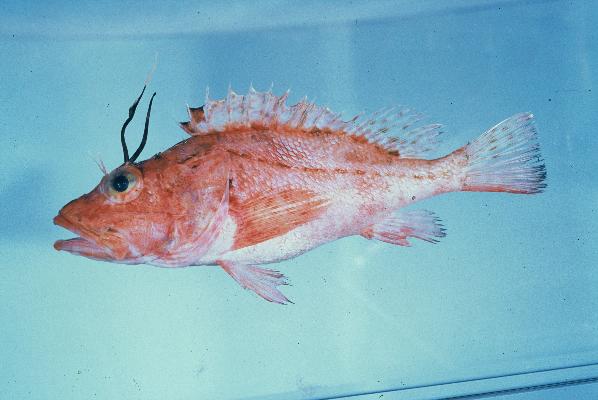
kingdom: Animalia
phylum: Chordata
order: Scorpaeniformes
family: Scorpaenidae
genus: Pontinus
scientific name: Pontinus nigerimum
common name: Blacklash scorpionfish
